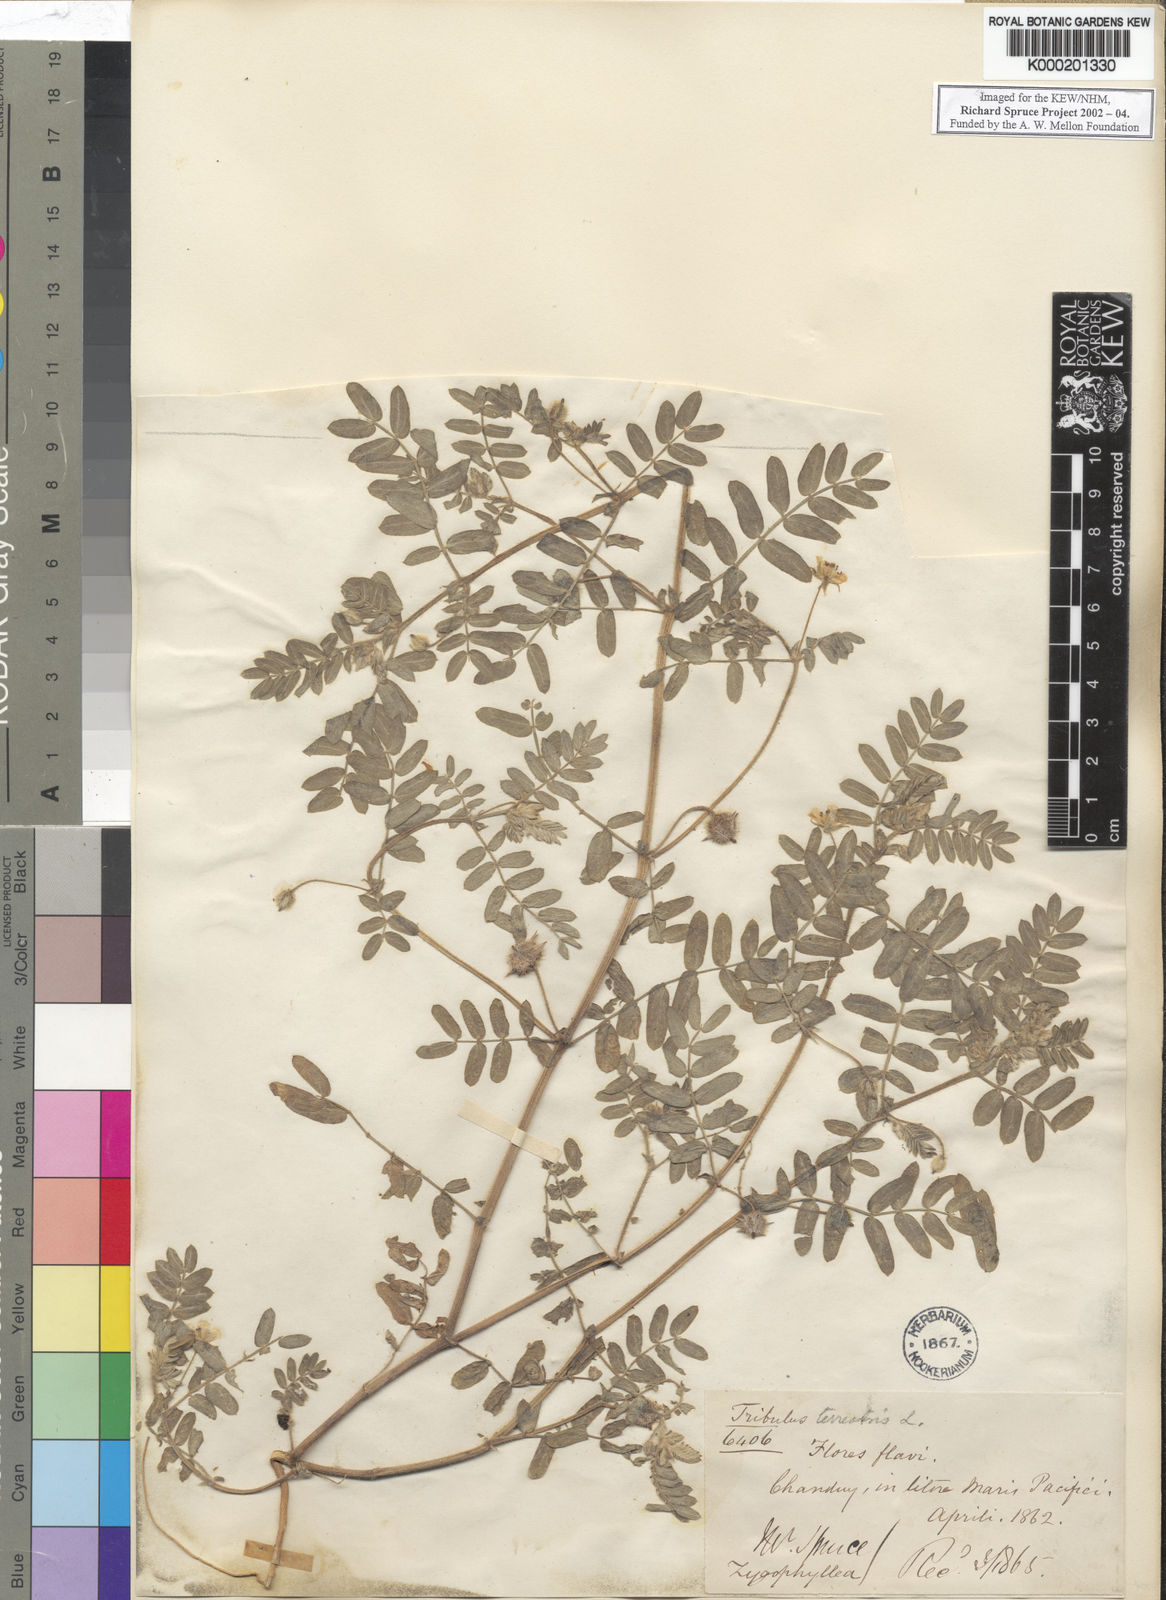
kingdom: Plantae
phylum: Tracheophyta
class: Magnoliopsida
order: Zygophyllales
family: Zygophyllaceae
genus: Tribulus
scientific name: Tribulus terrestris
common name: Puncturevine
